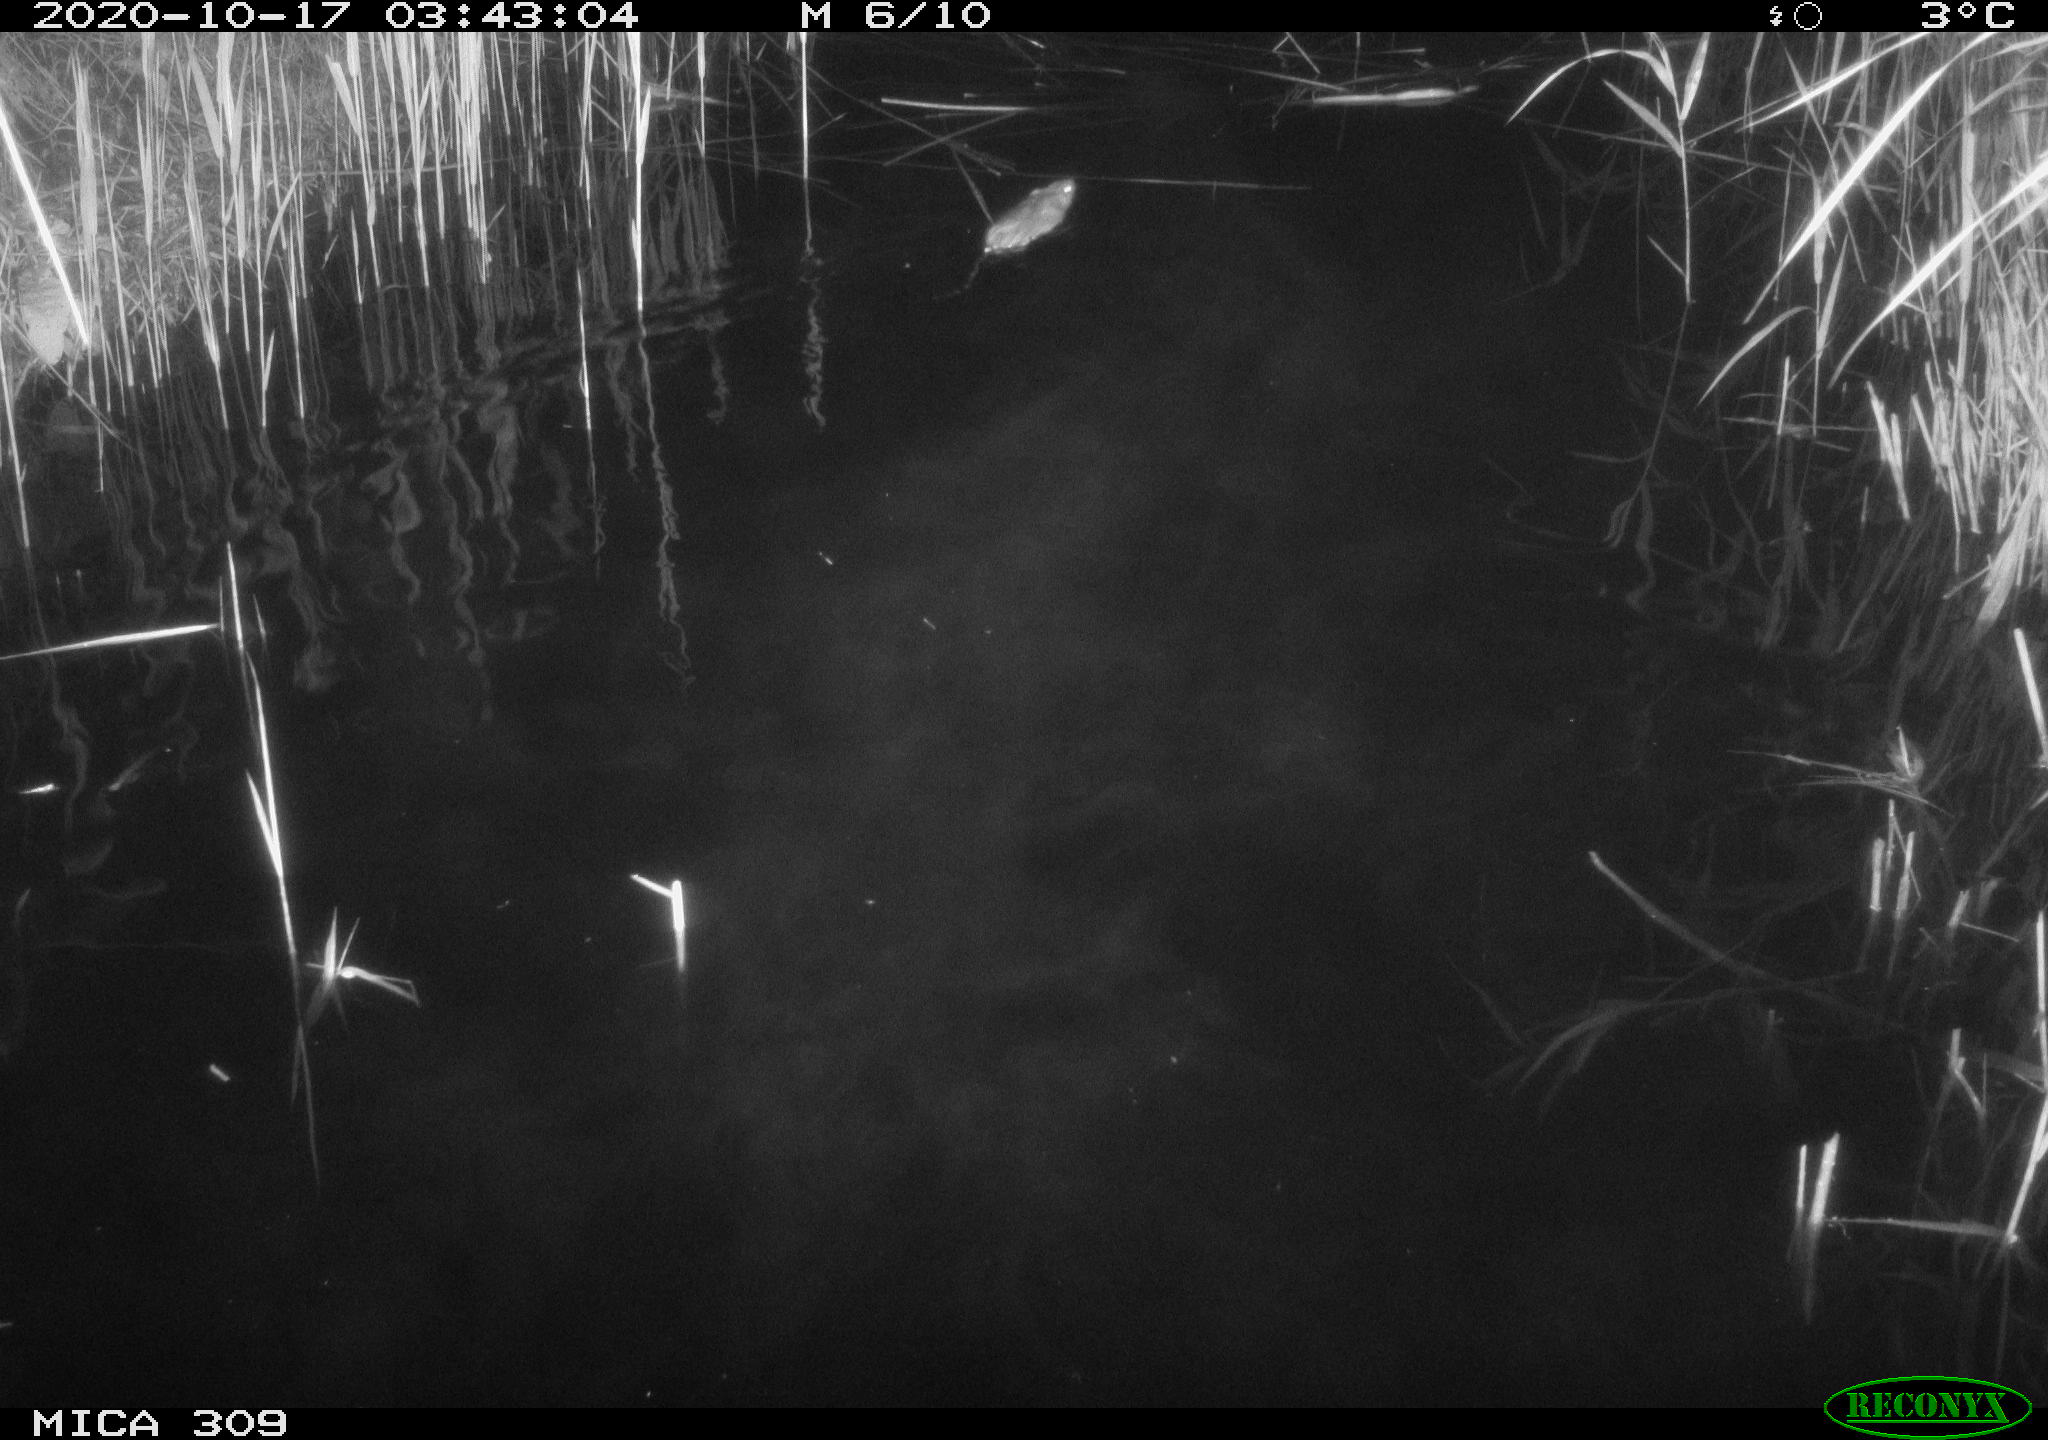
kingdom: Animalia
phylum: Chordata
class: Mammalia
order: Rodentia
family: Muridae
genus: Rattus
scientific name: Rattus norvegicus
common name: Brown rat
